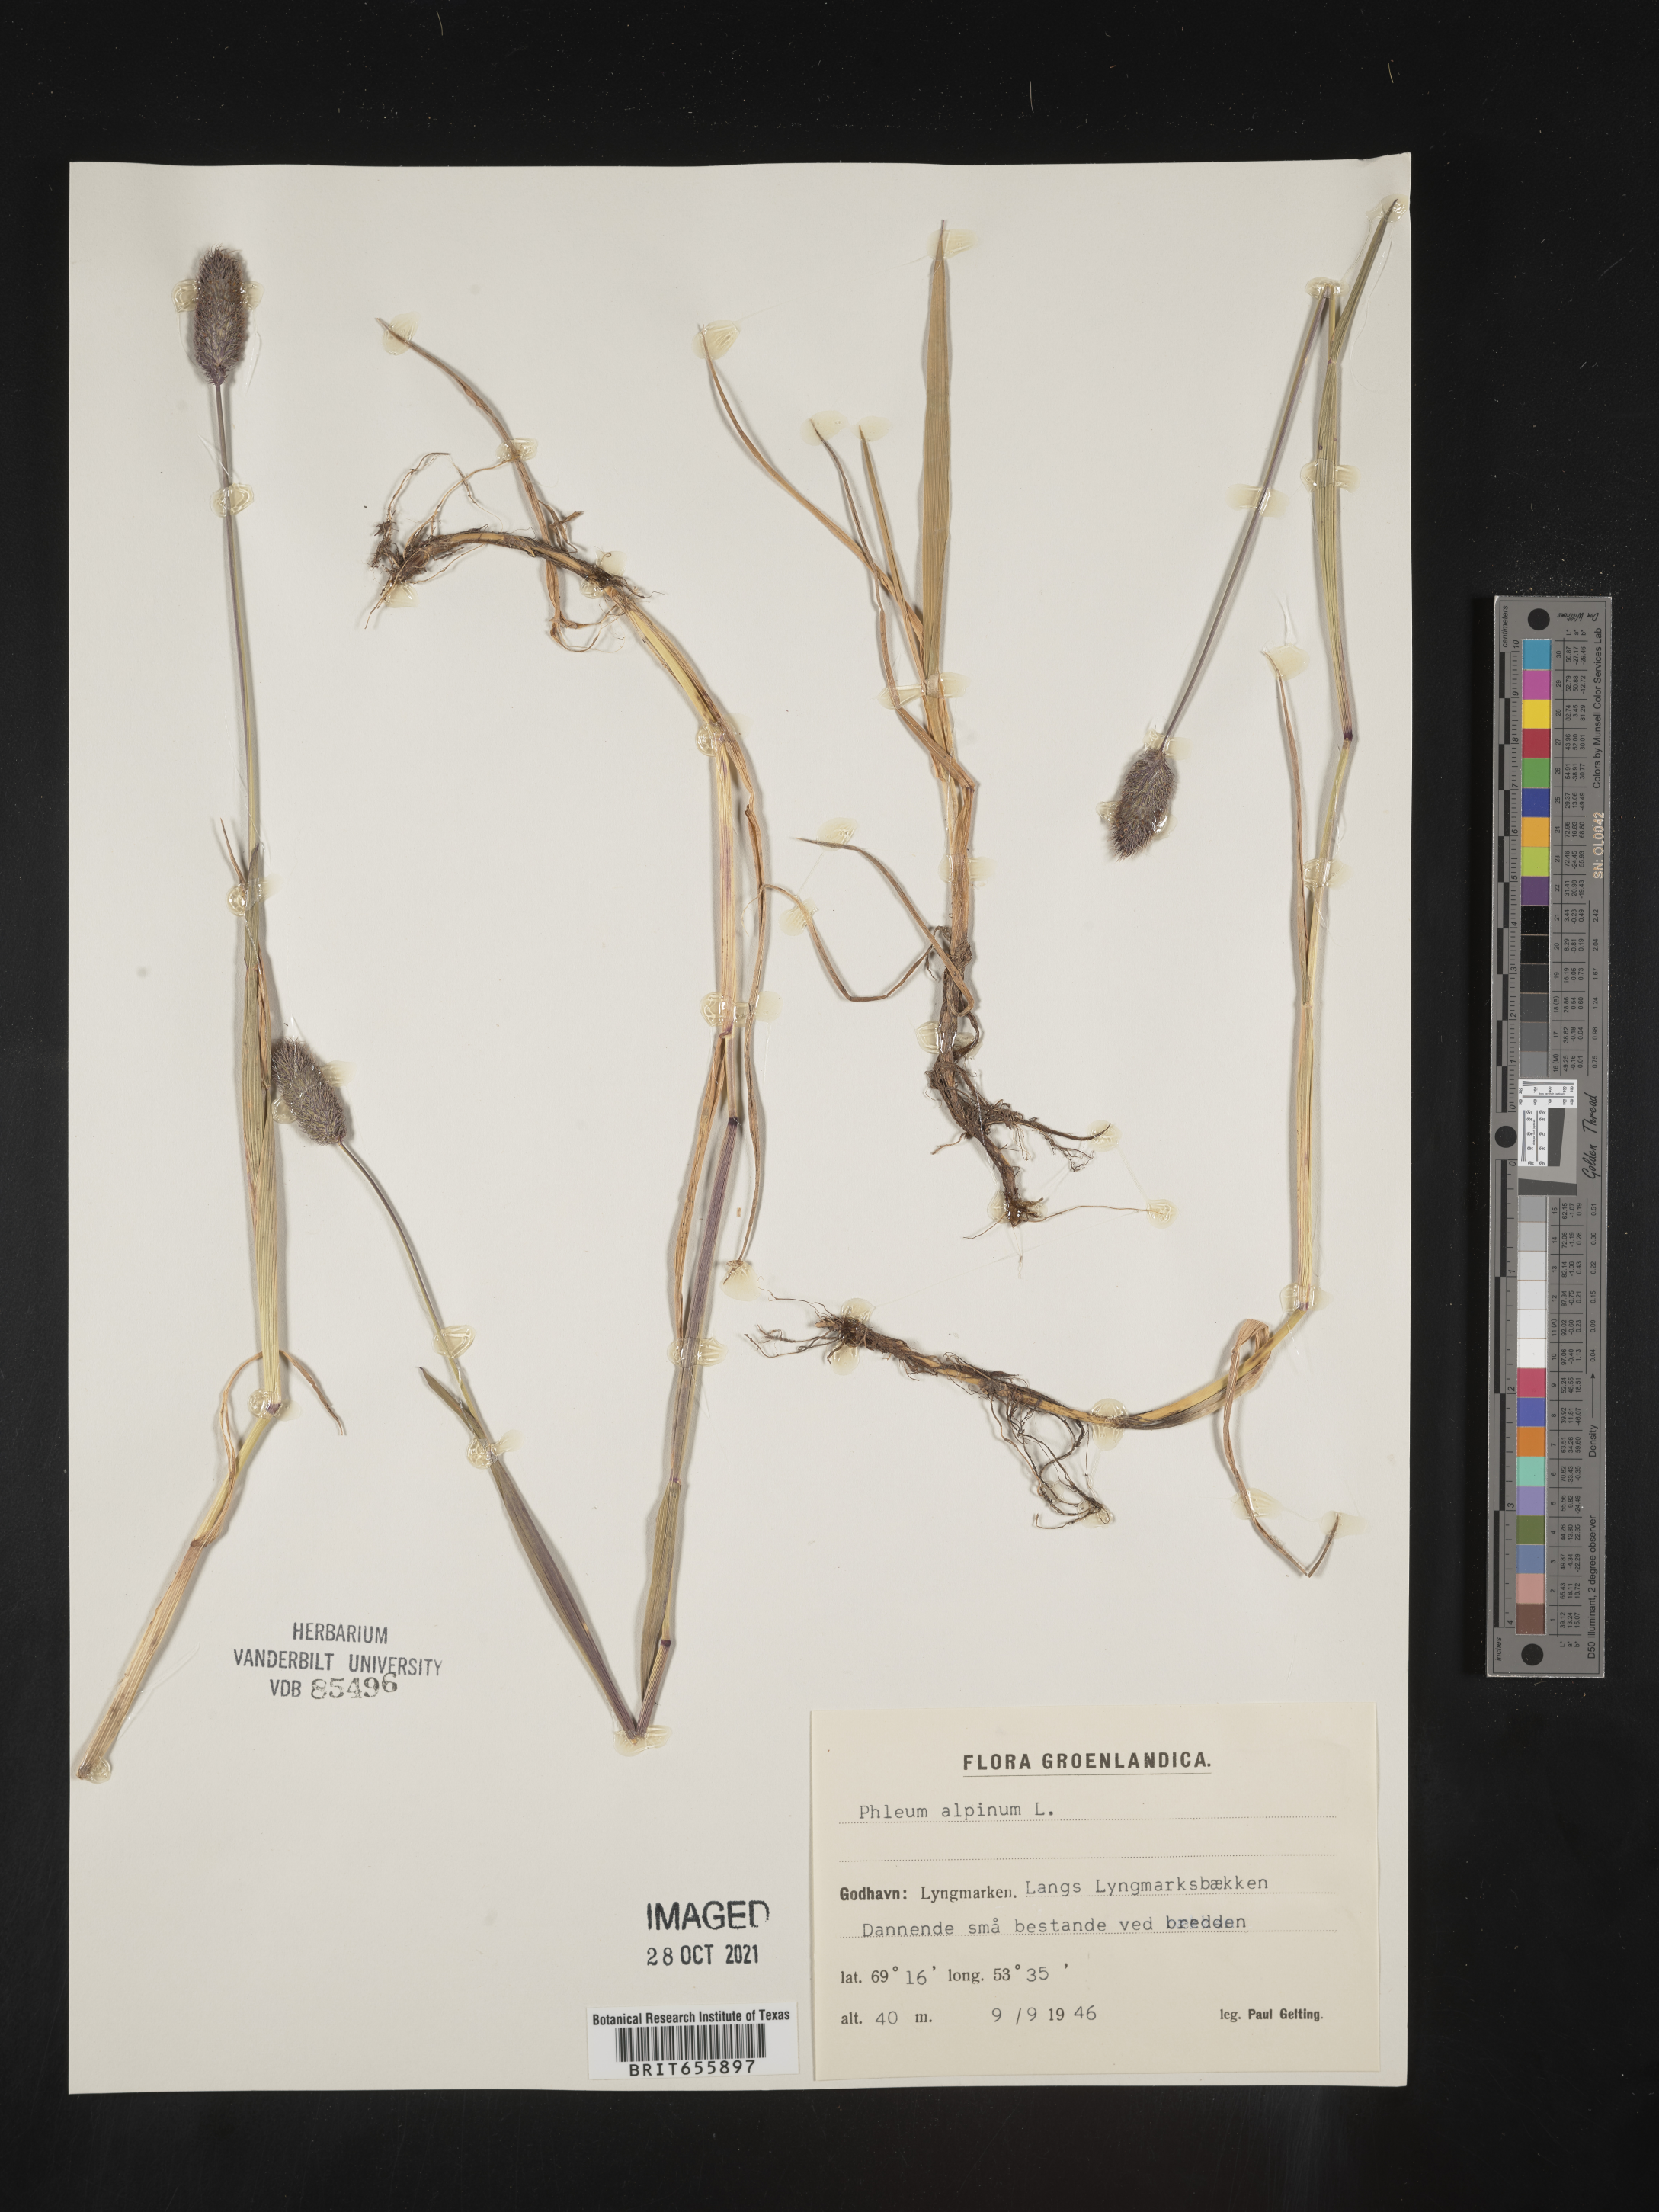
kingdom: Plantae
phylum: Tracheophyta
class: Liliopsida
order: Poales
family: Poaceae
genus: Phleum
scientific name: Phleum
